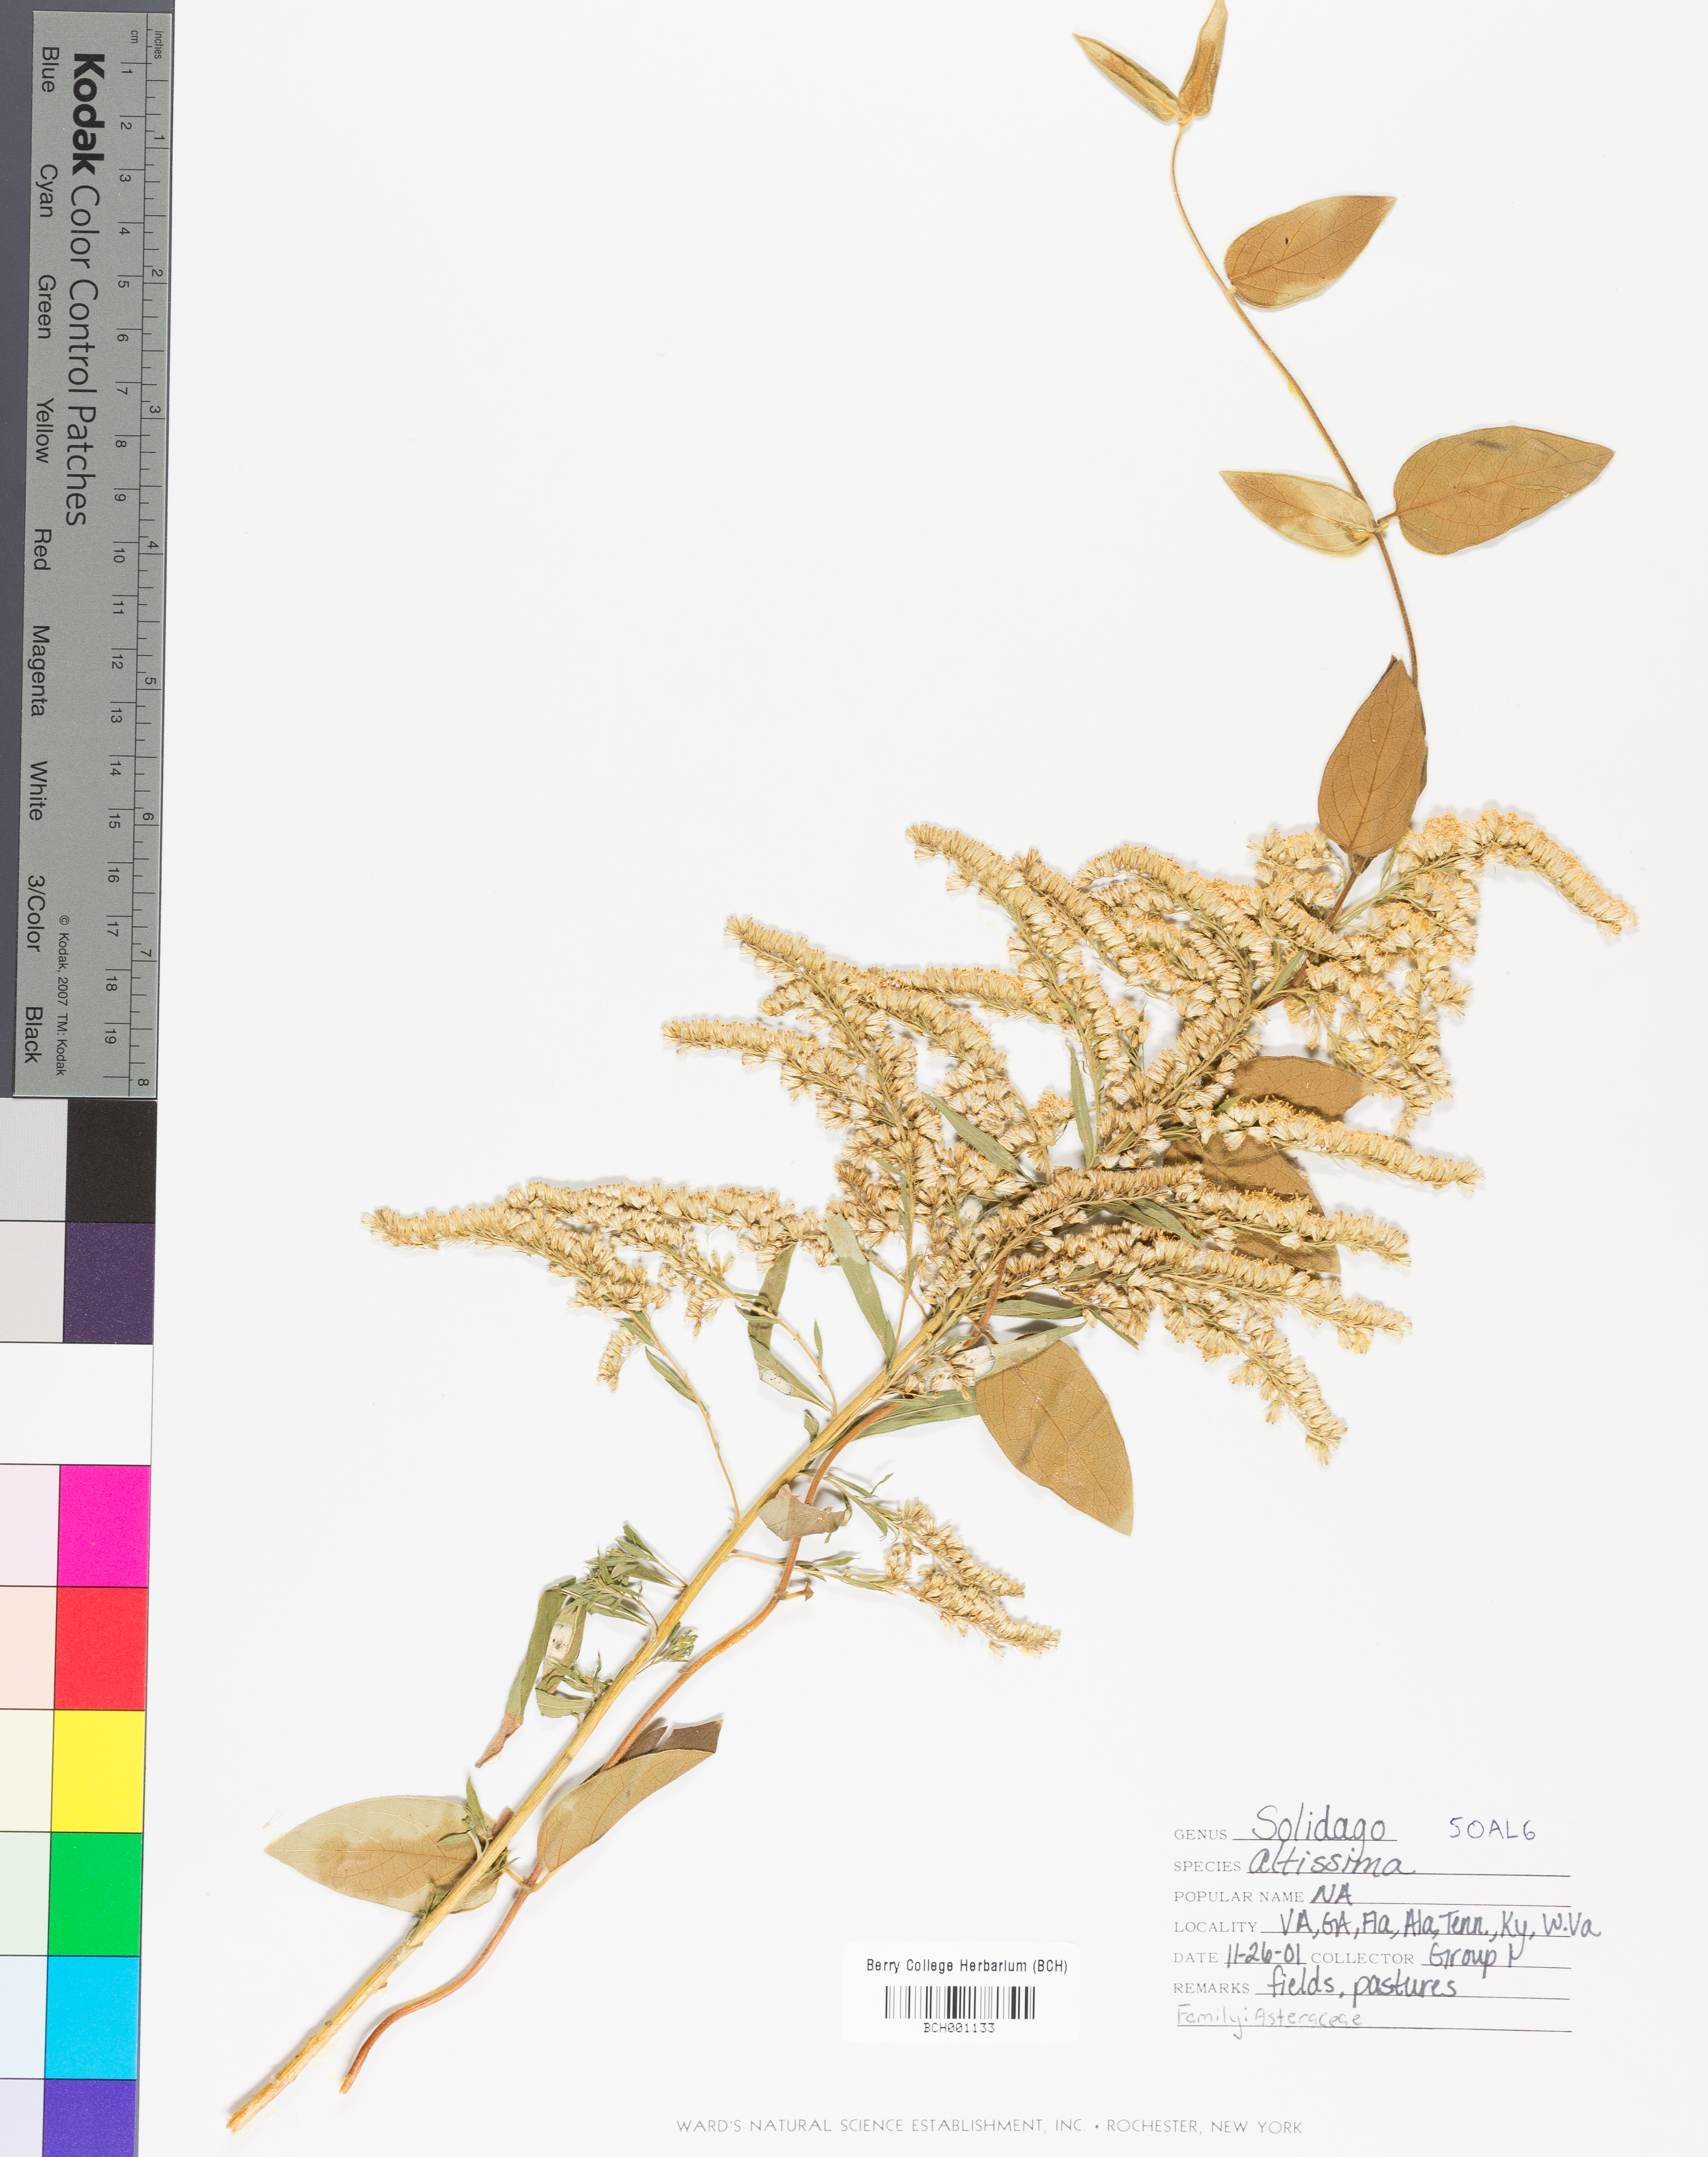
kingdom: Plantae
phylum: Tracheophyta
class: Magnoliopsida
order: Asterales
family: Asteraceae
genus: Solidago
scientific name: Solidago altissima
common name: Late goldenrod
